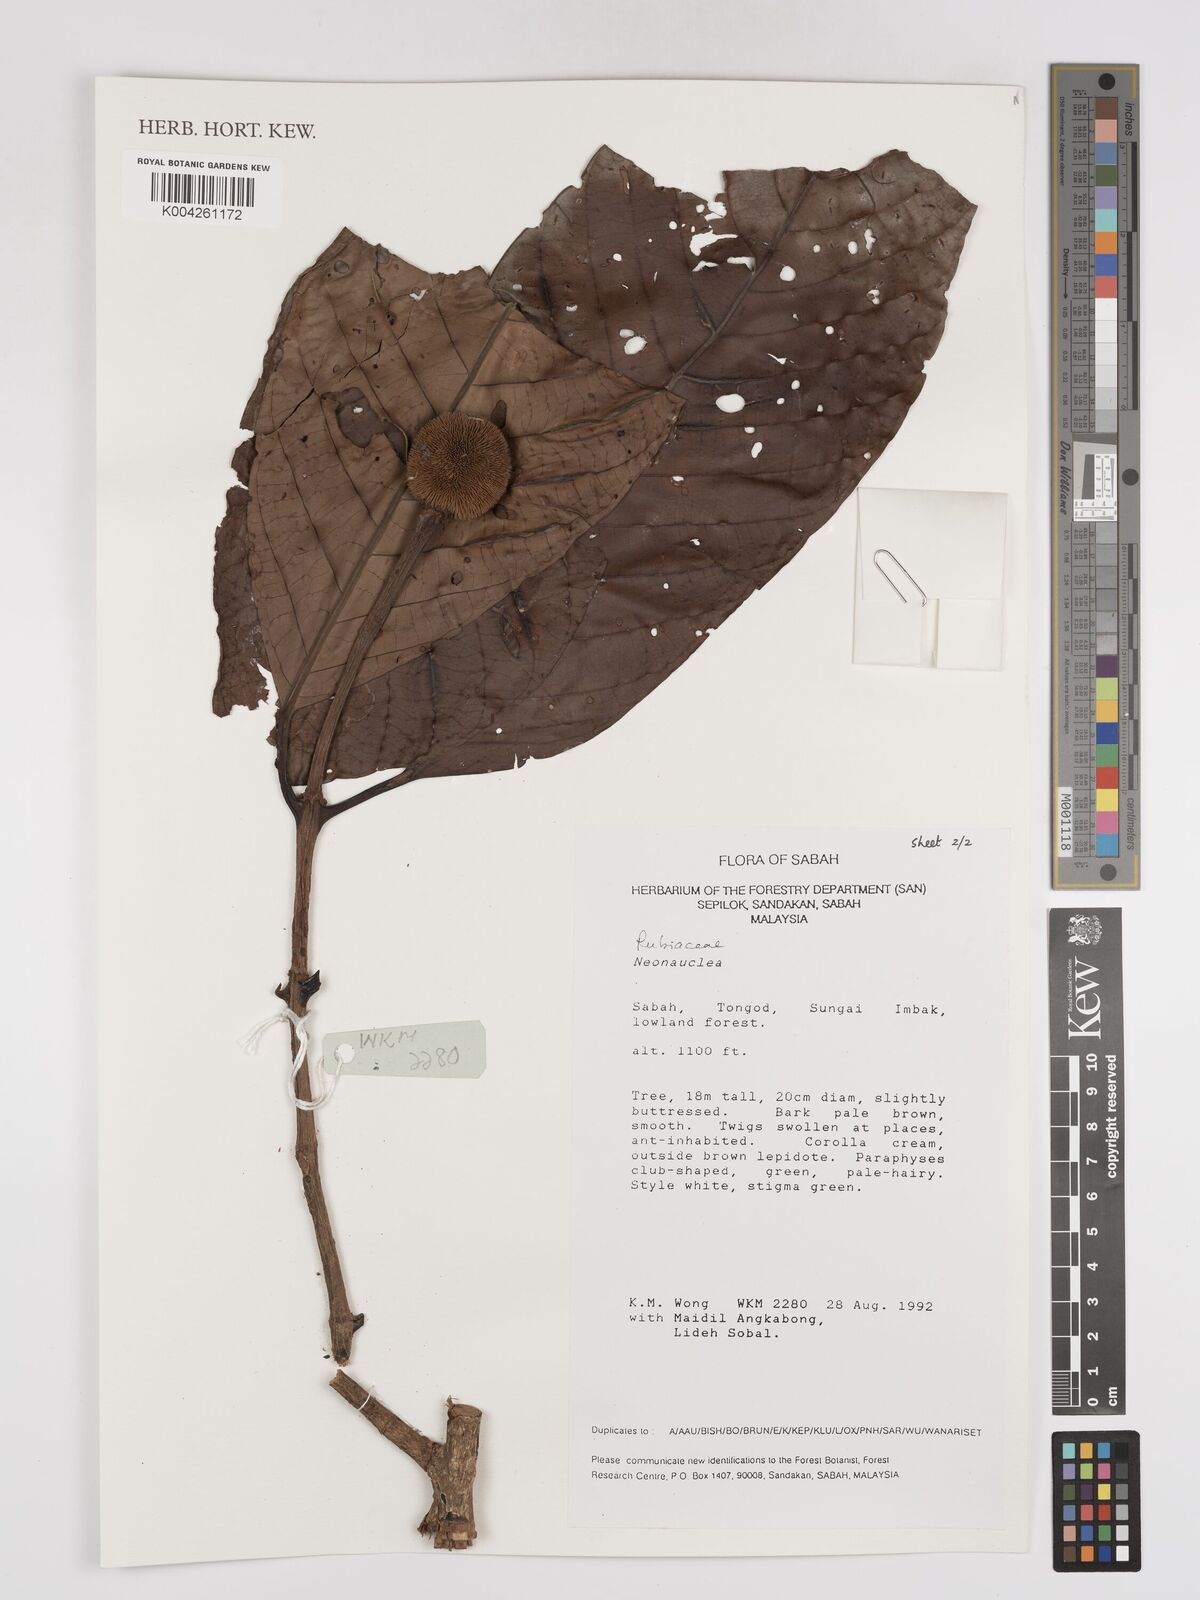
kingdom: Plantae
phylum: Tracheophyta
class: Magnoliopsida
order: Gentianales
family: Rubiaceae
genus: Neonauclea
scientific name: Neonauclea
